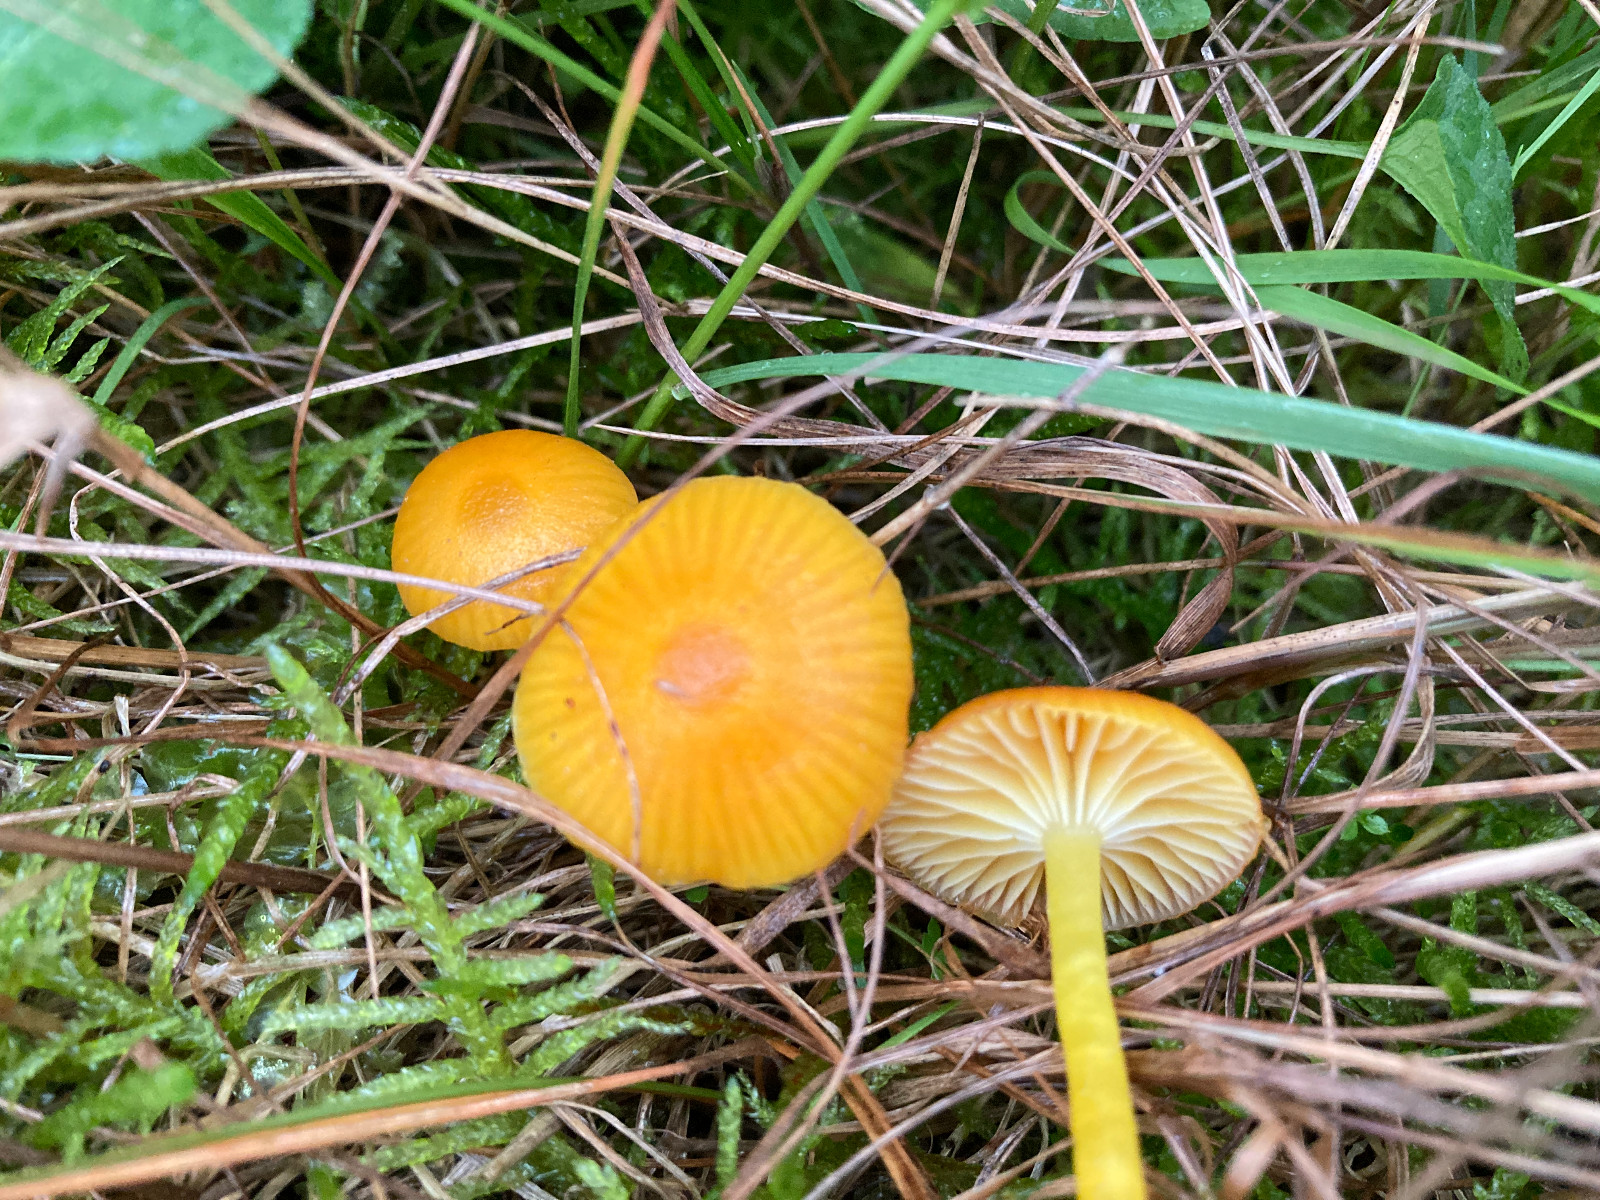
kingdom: Fungi
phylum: Basidiomycota
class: Agaricomycetes
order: Agaricales
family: Hygrophoraceae
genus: Hygrocybe
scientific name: Hygrocybe ceracea
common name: voksgul vokshat
